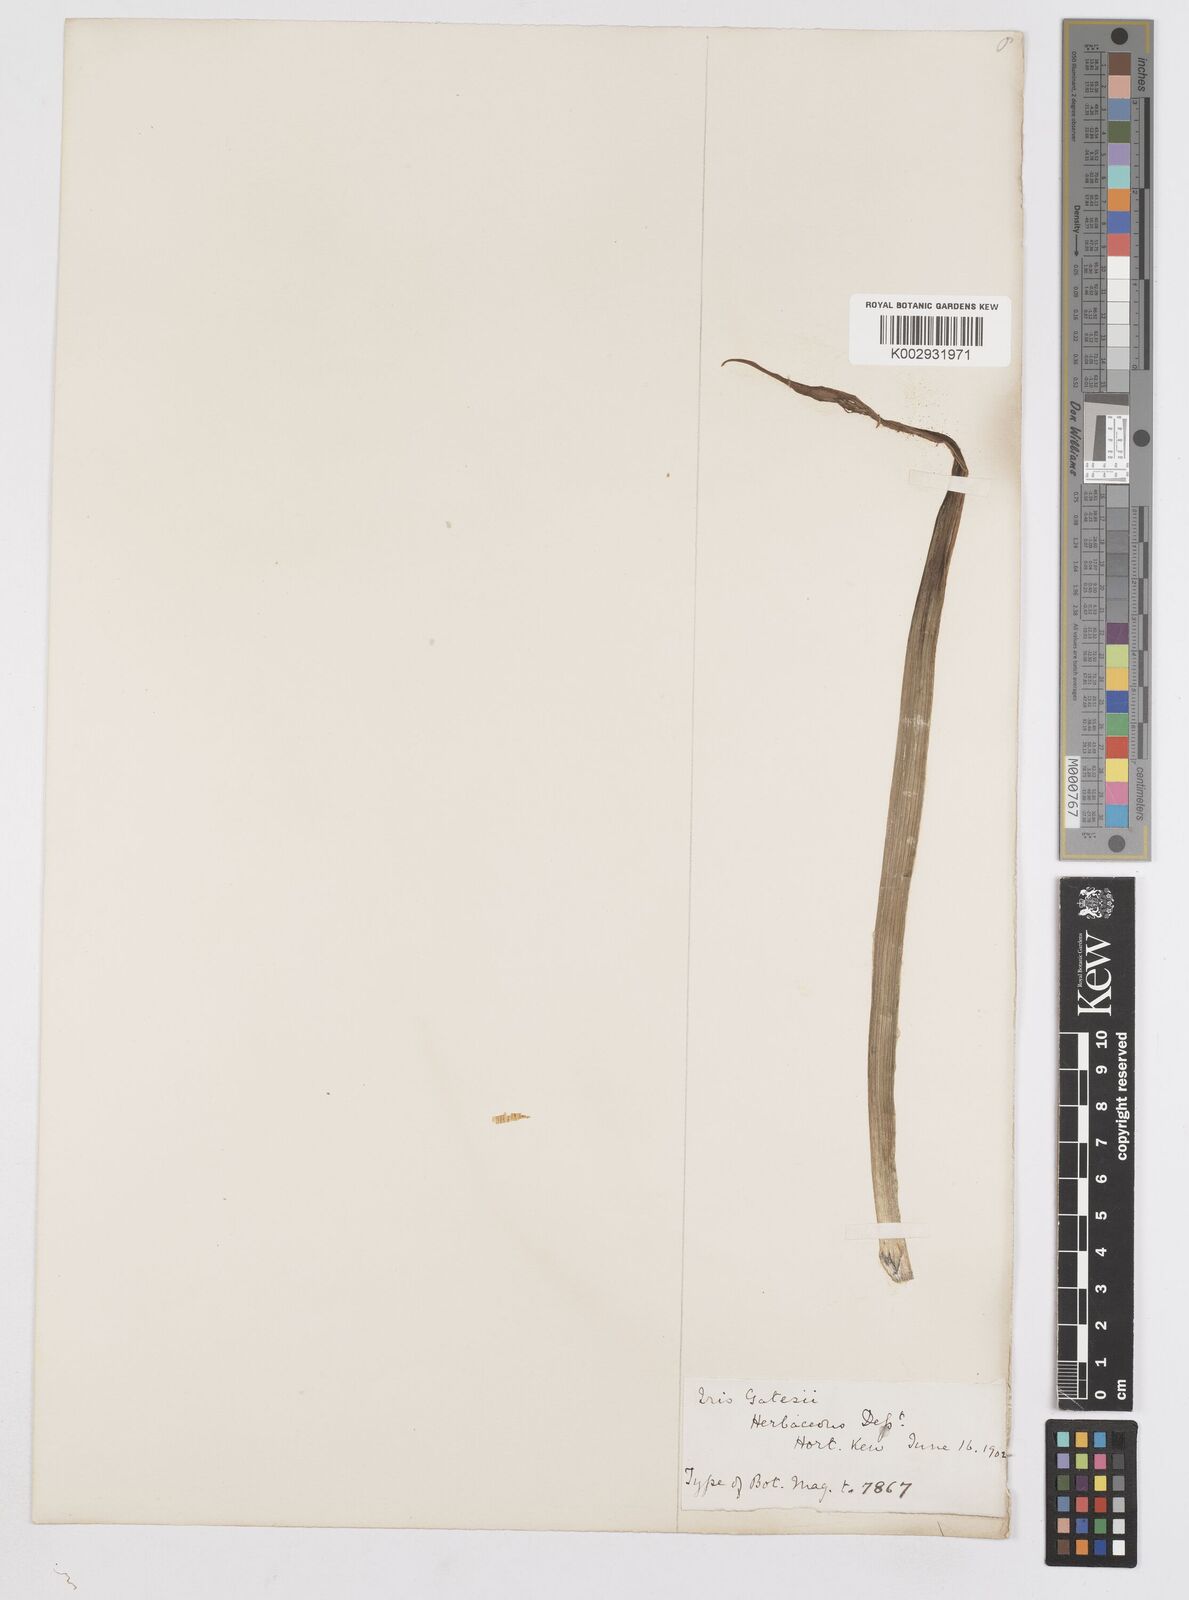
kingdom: Plantae
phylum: Tracheophyta
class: Liliopsida
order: Asparagales
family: Iridaceae
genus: Iris
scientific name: Iris gatesii
